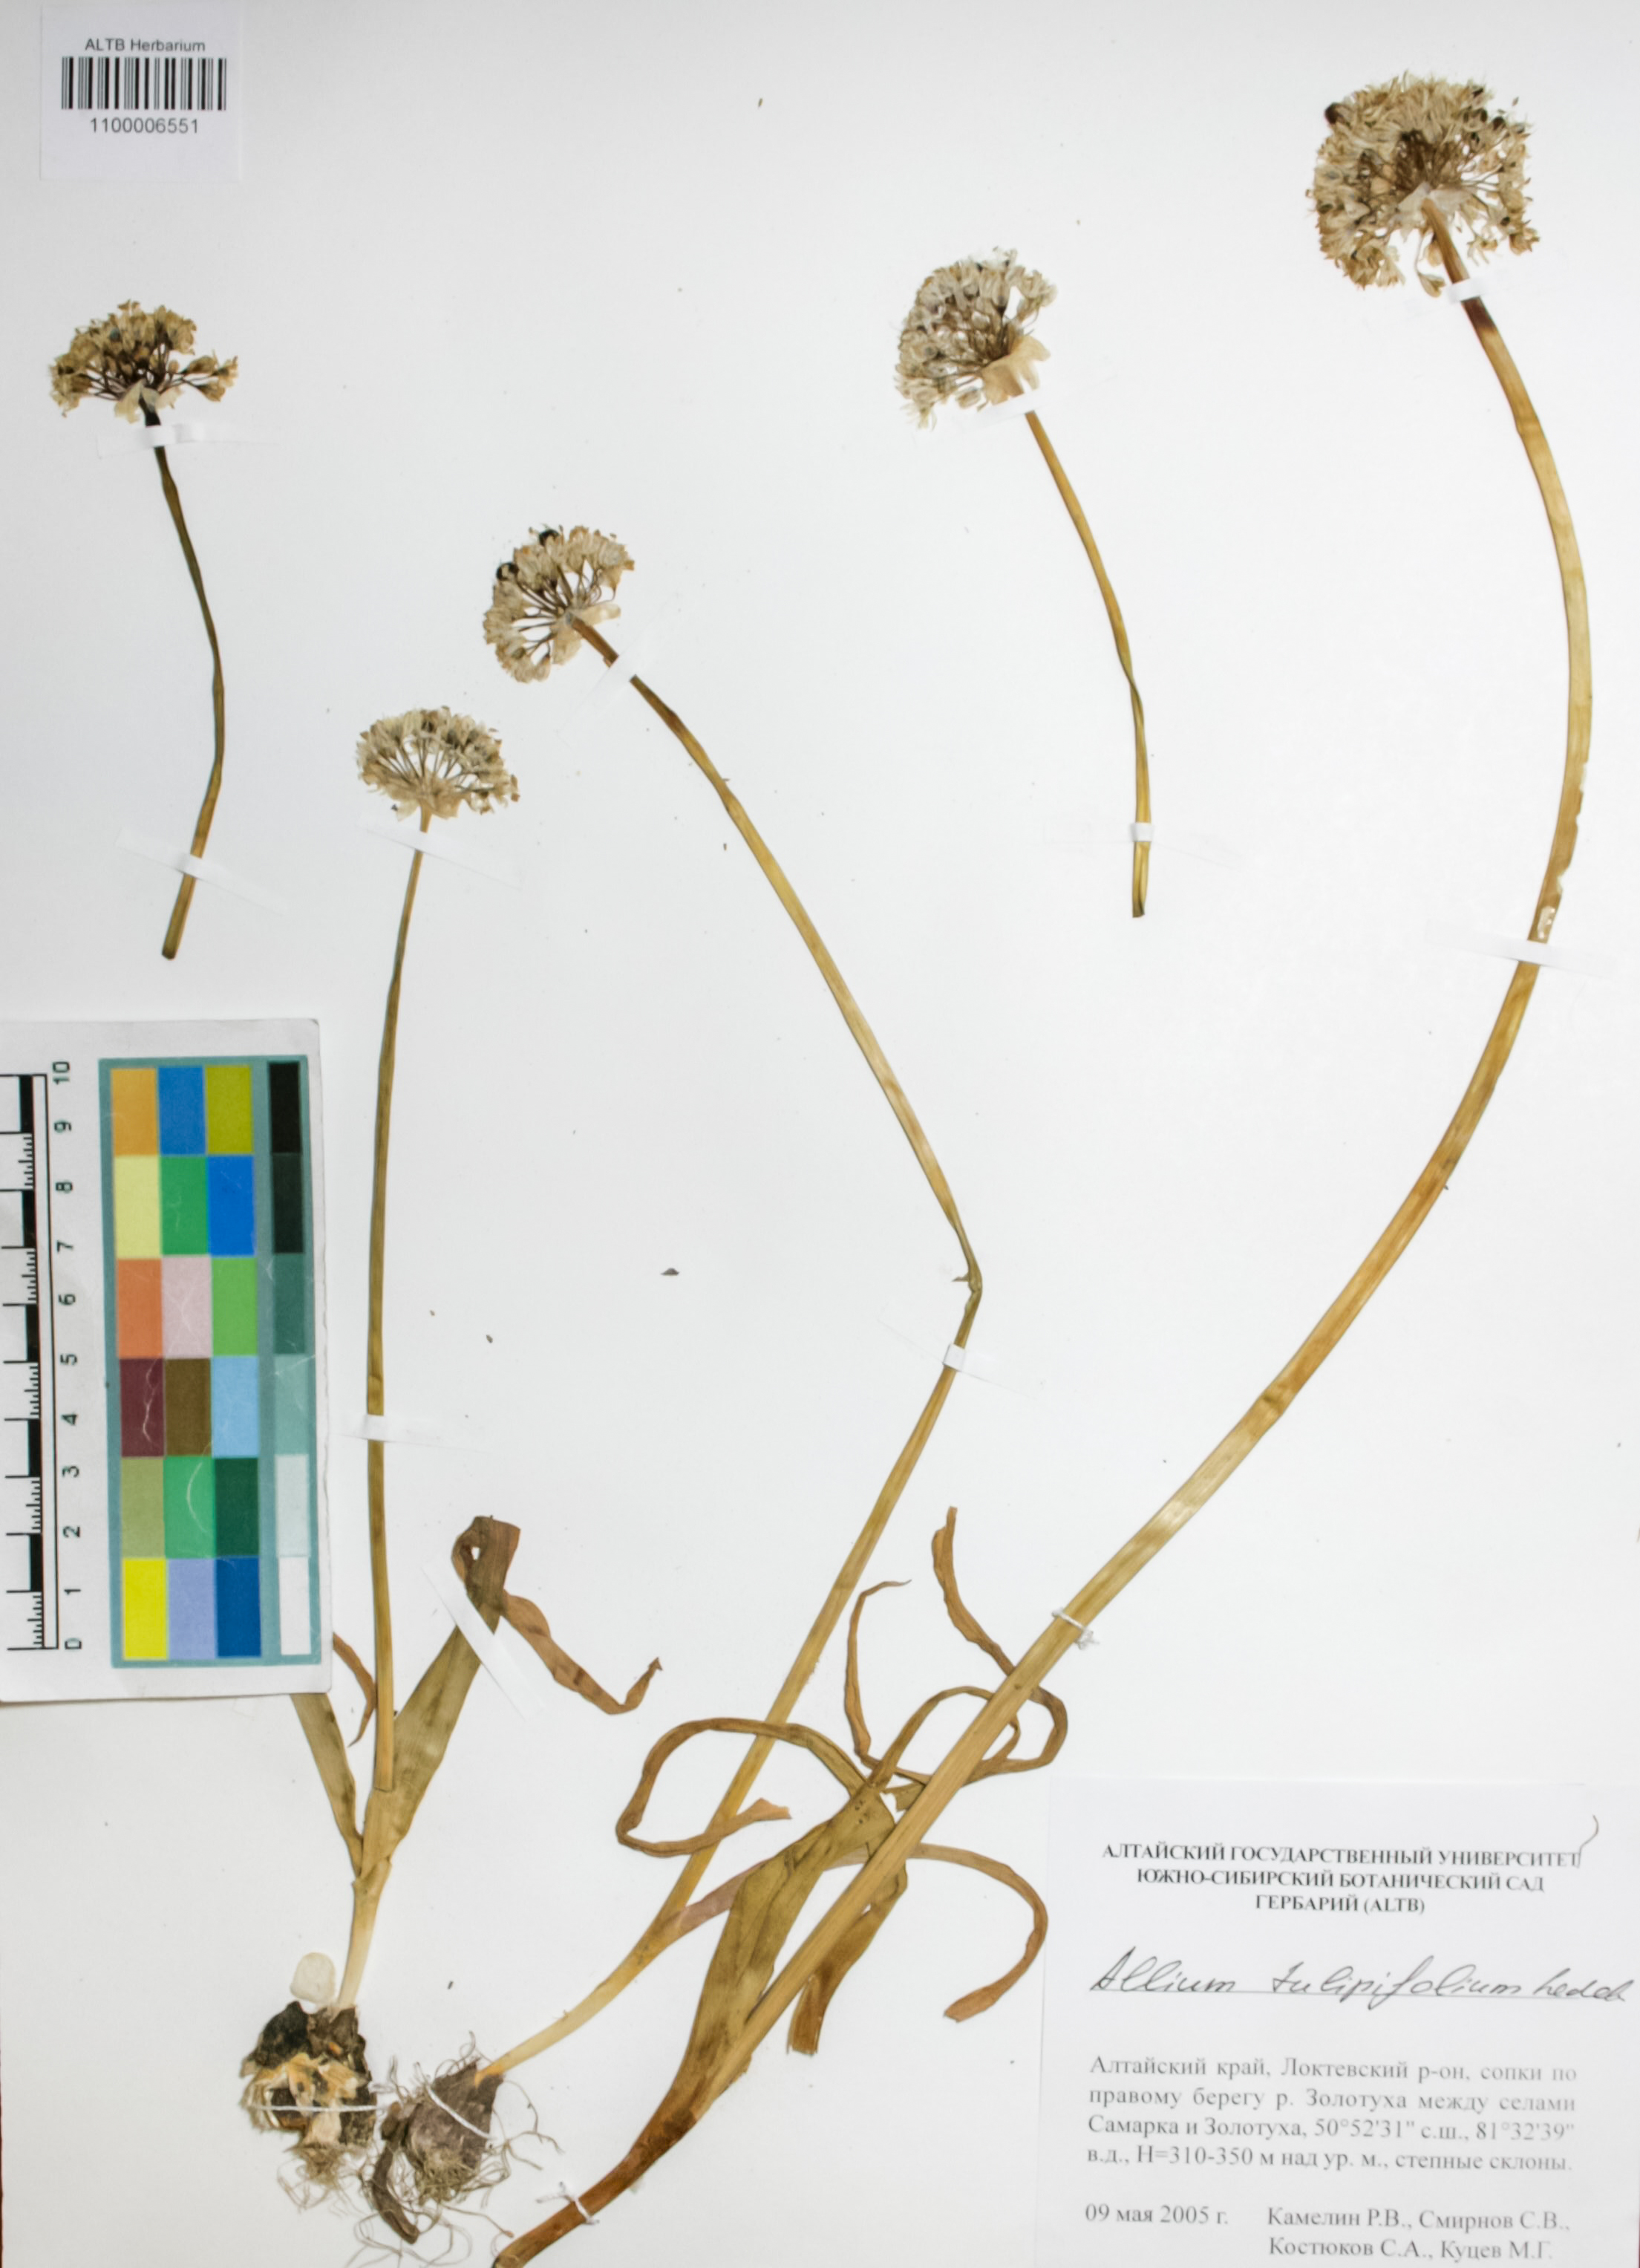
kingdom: Plantae
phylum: Tracheophyta
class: Liliopsida
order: Asparagales
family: Amaryllidaceae
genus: Allium
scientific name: Allium tulipifolium
